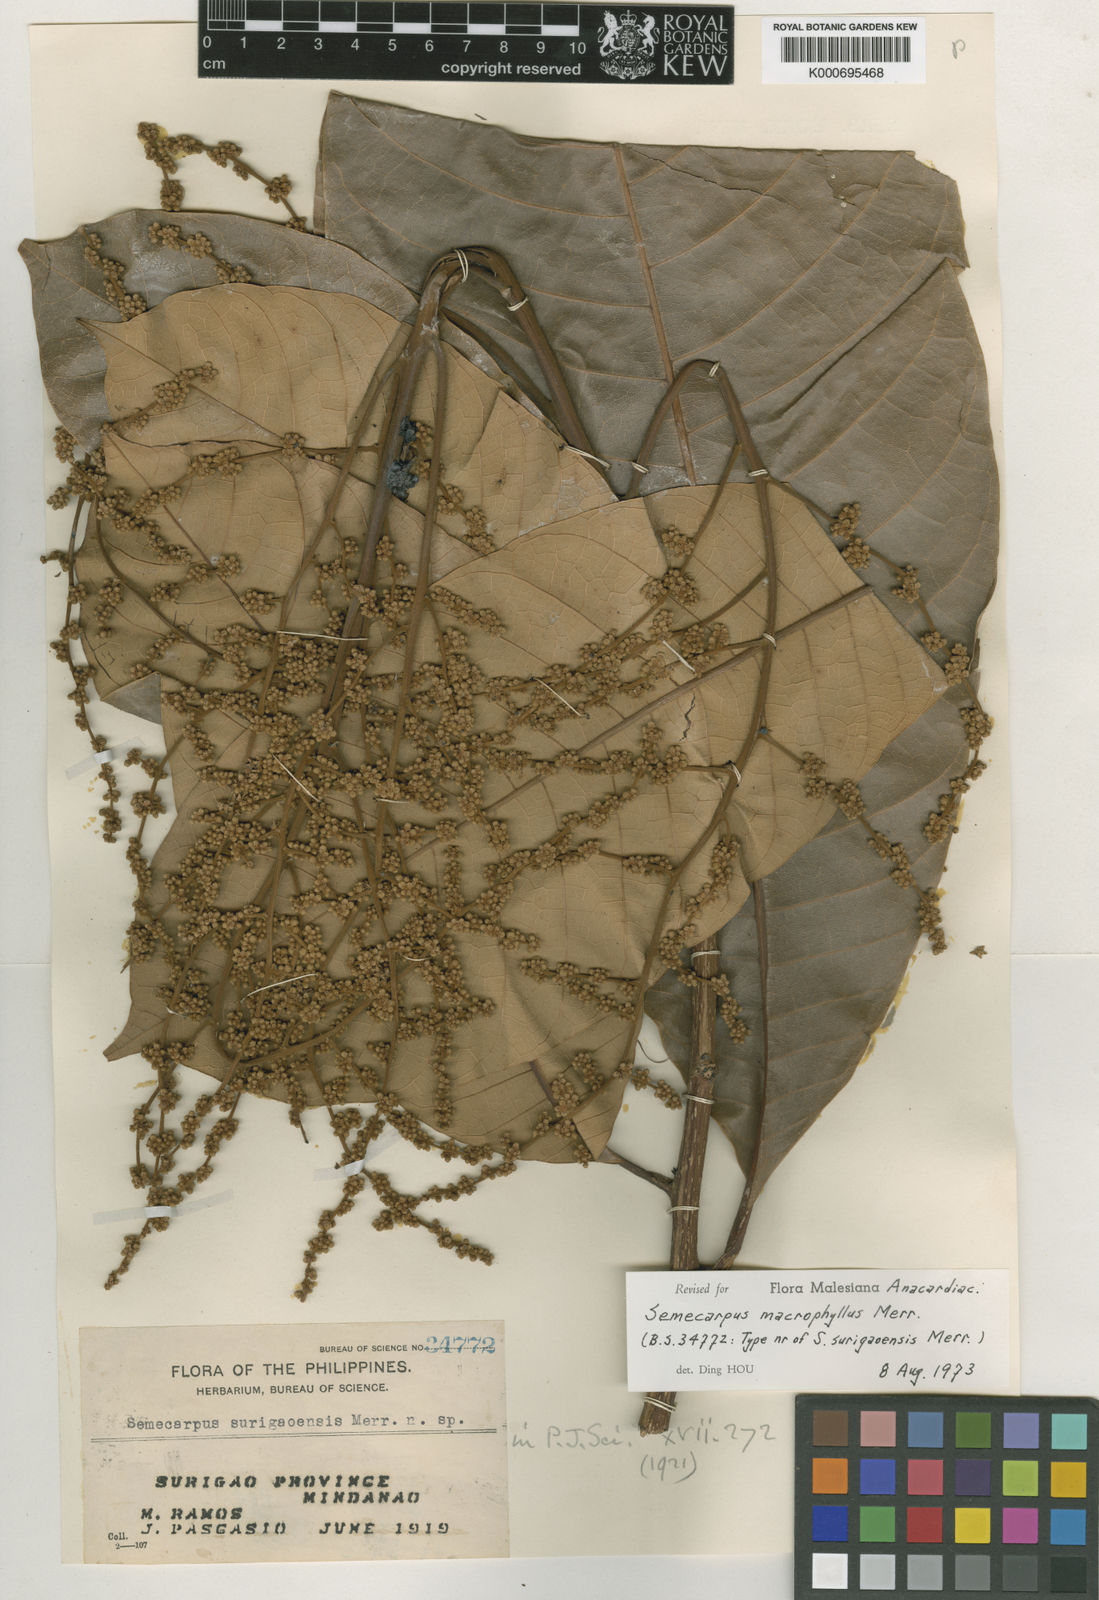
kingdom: Plantae
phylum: Tracheophyta
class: Magnoliopsida
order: Sapindales
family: Anacardiaceae
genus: Semecarpus
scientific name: Semecarpus macrophyllus
